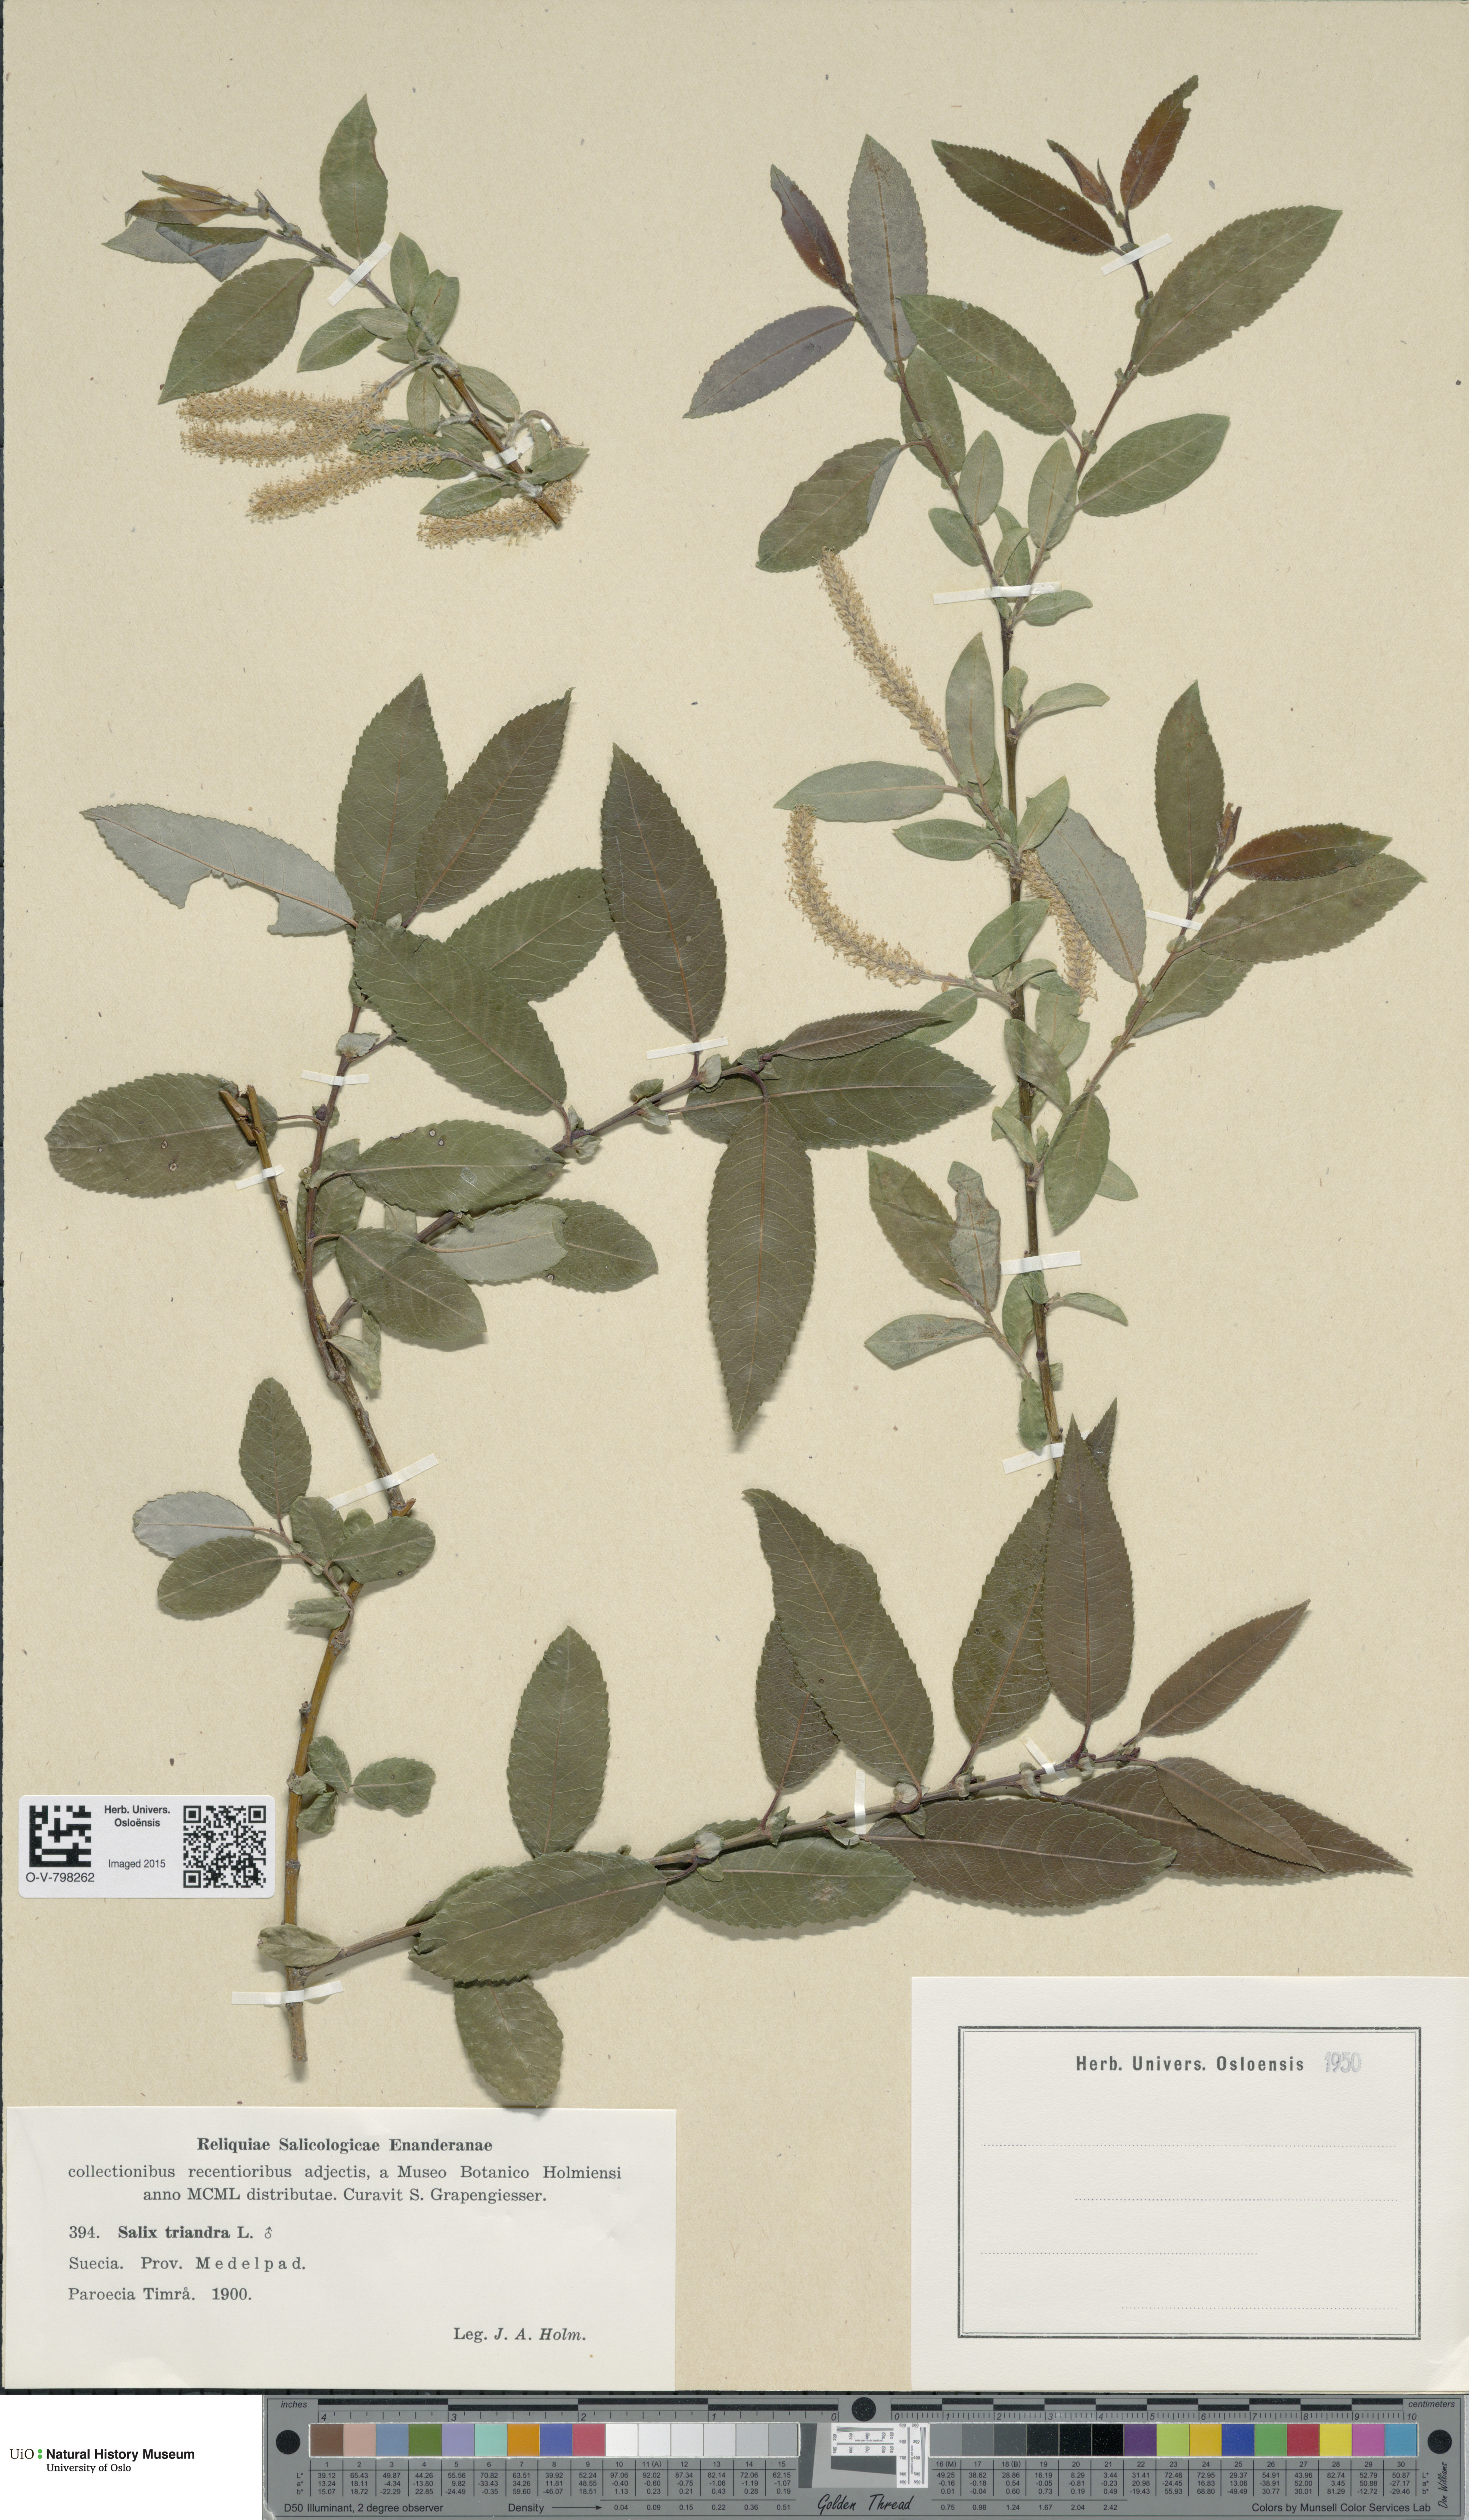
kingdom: Plantae
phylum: Tracheophyta
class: Magnoliopsida
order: Malpighiales
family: Salicaceae
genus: Salix
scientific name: Salix triandra
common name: Almond willow
